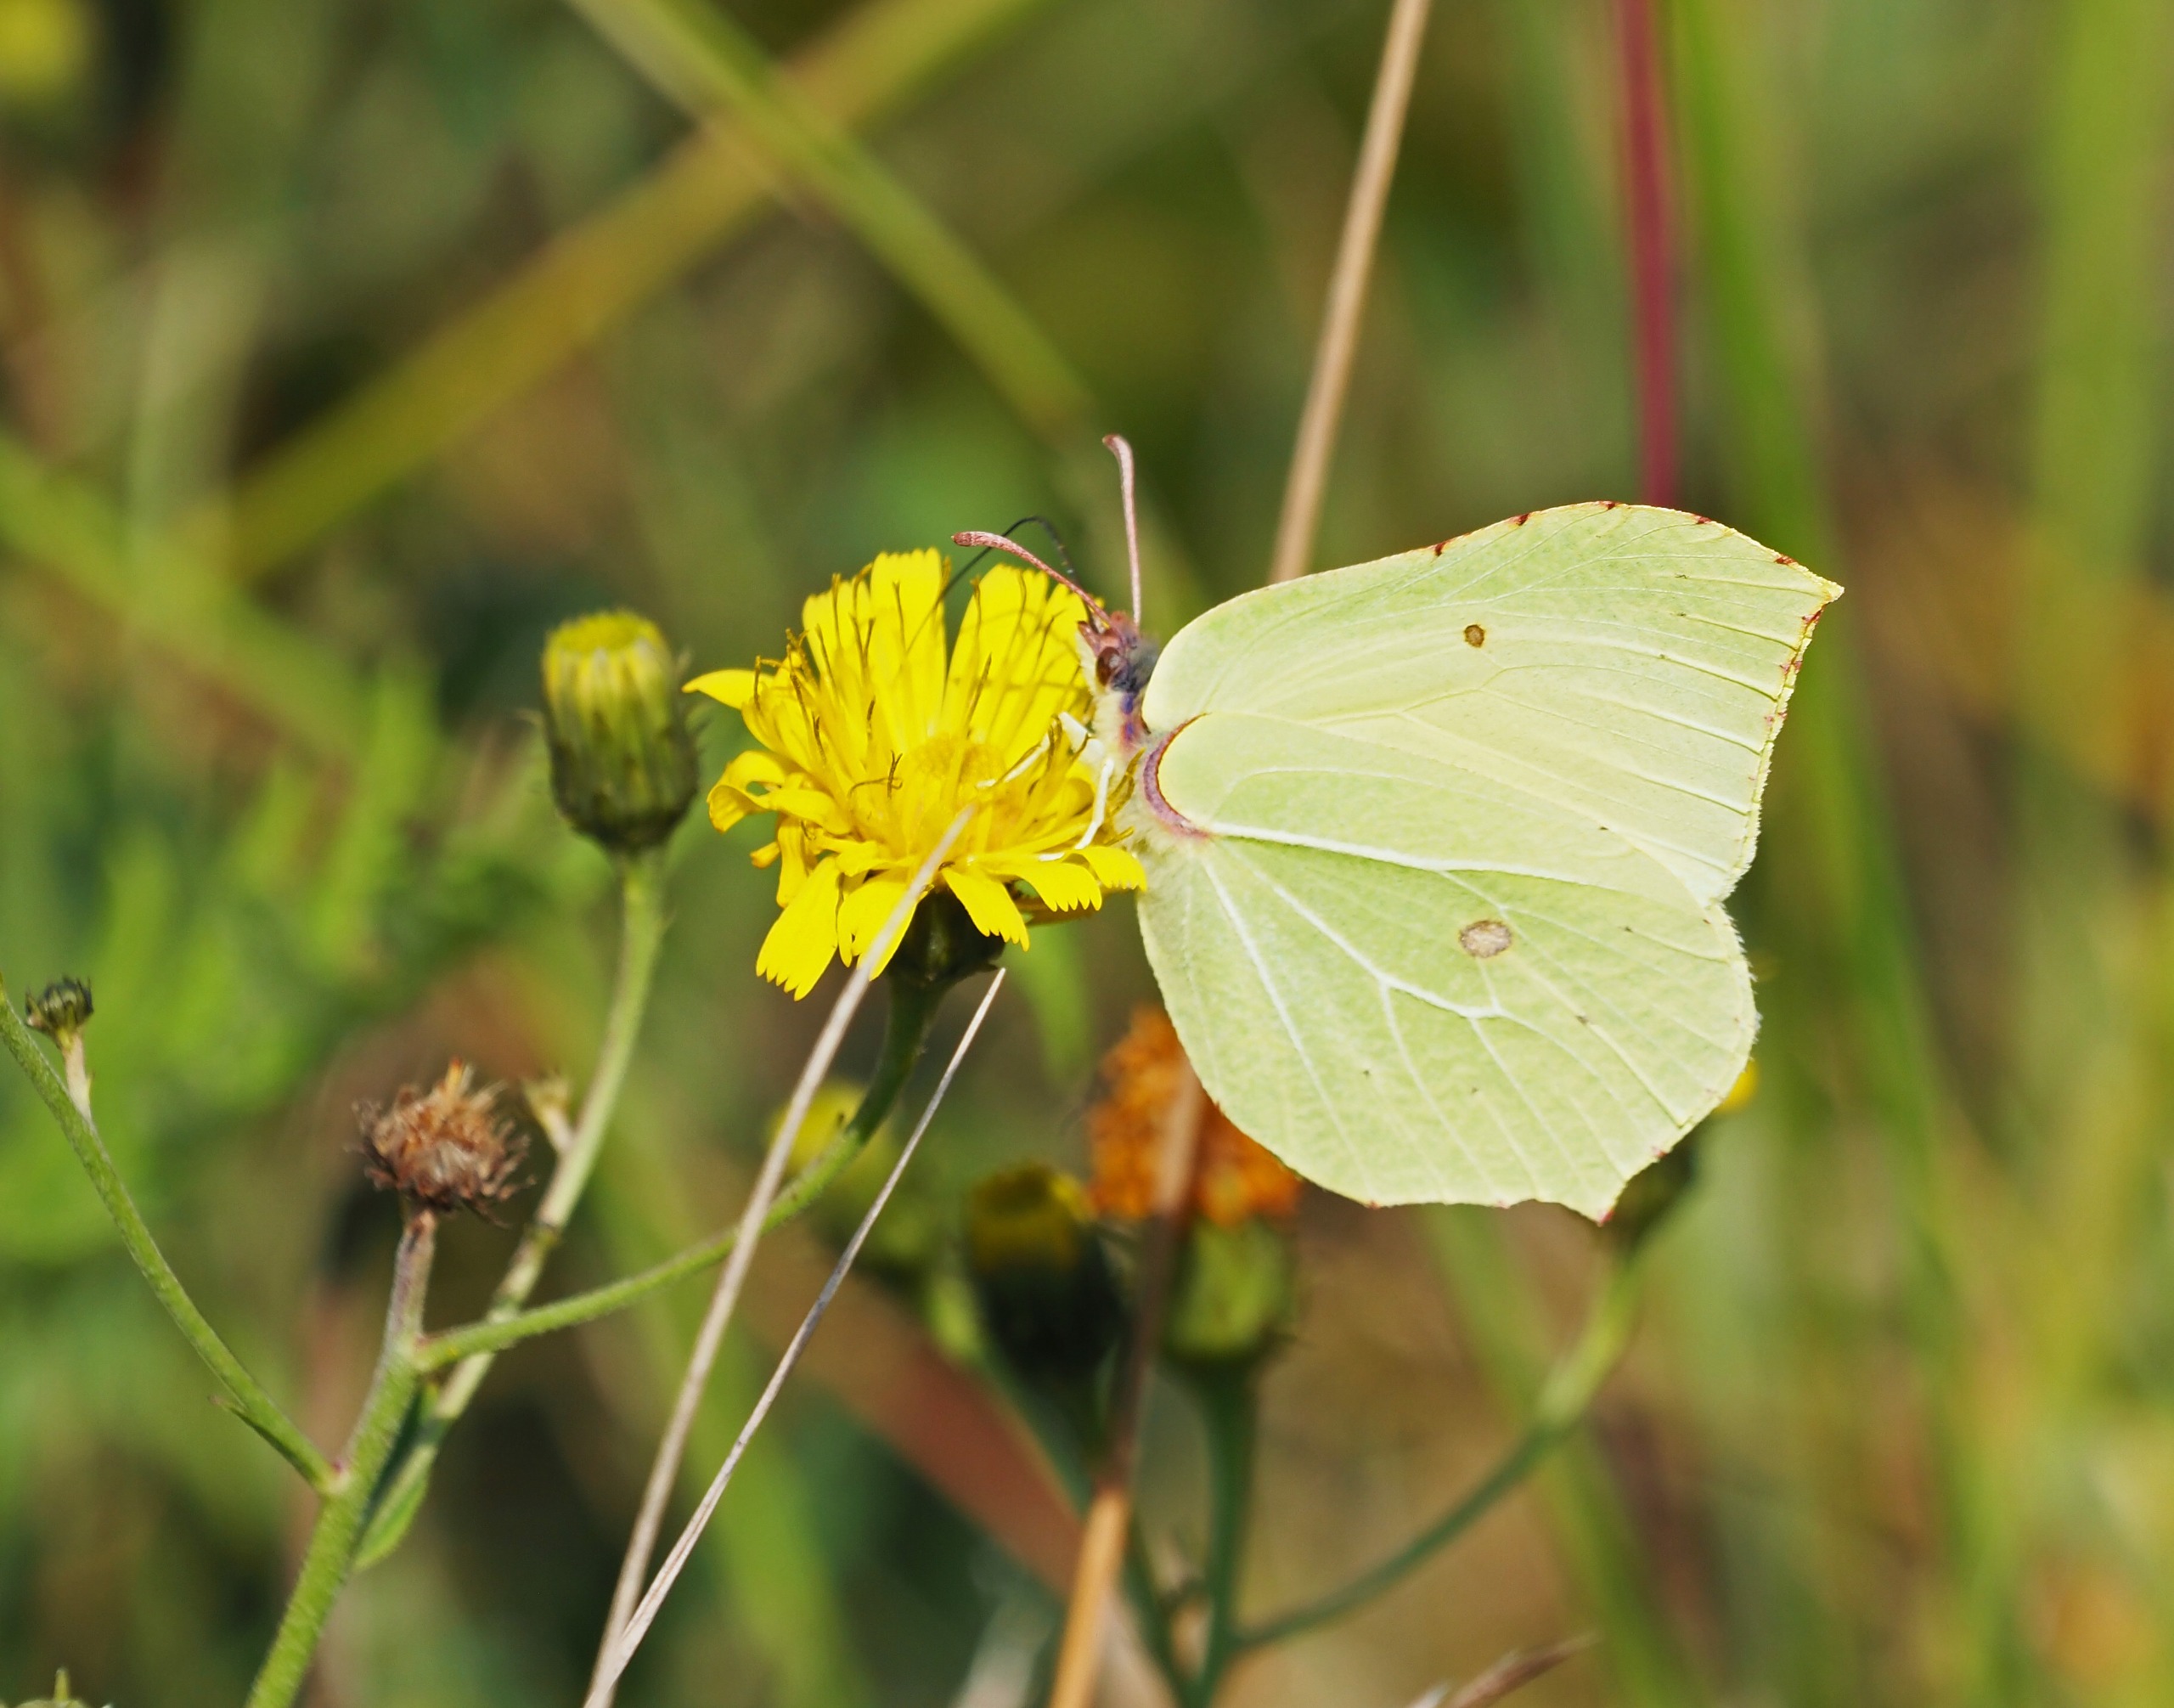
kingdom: Animalia
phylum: Arthropoda
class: Insecta
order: Lepidoptera
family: Pieridae
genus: Gonepteryx
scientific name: Gonepteryx rhamni
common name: Citronsommerfugl
